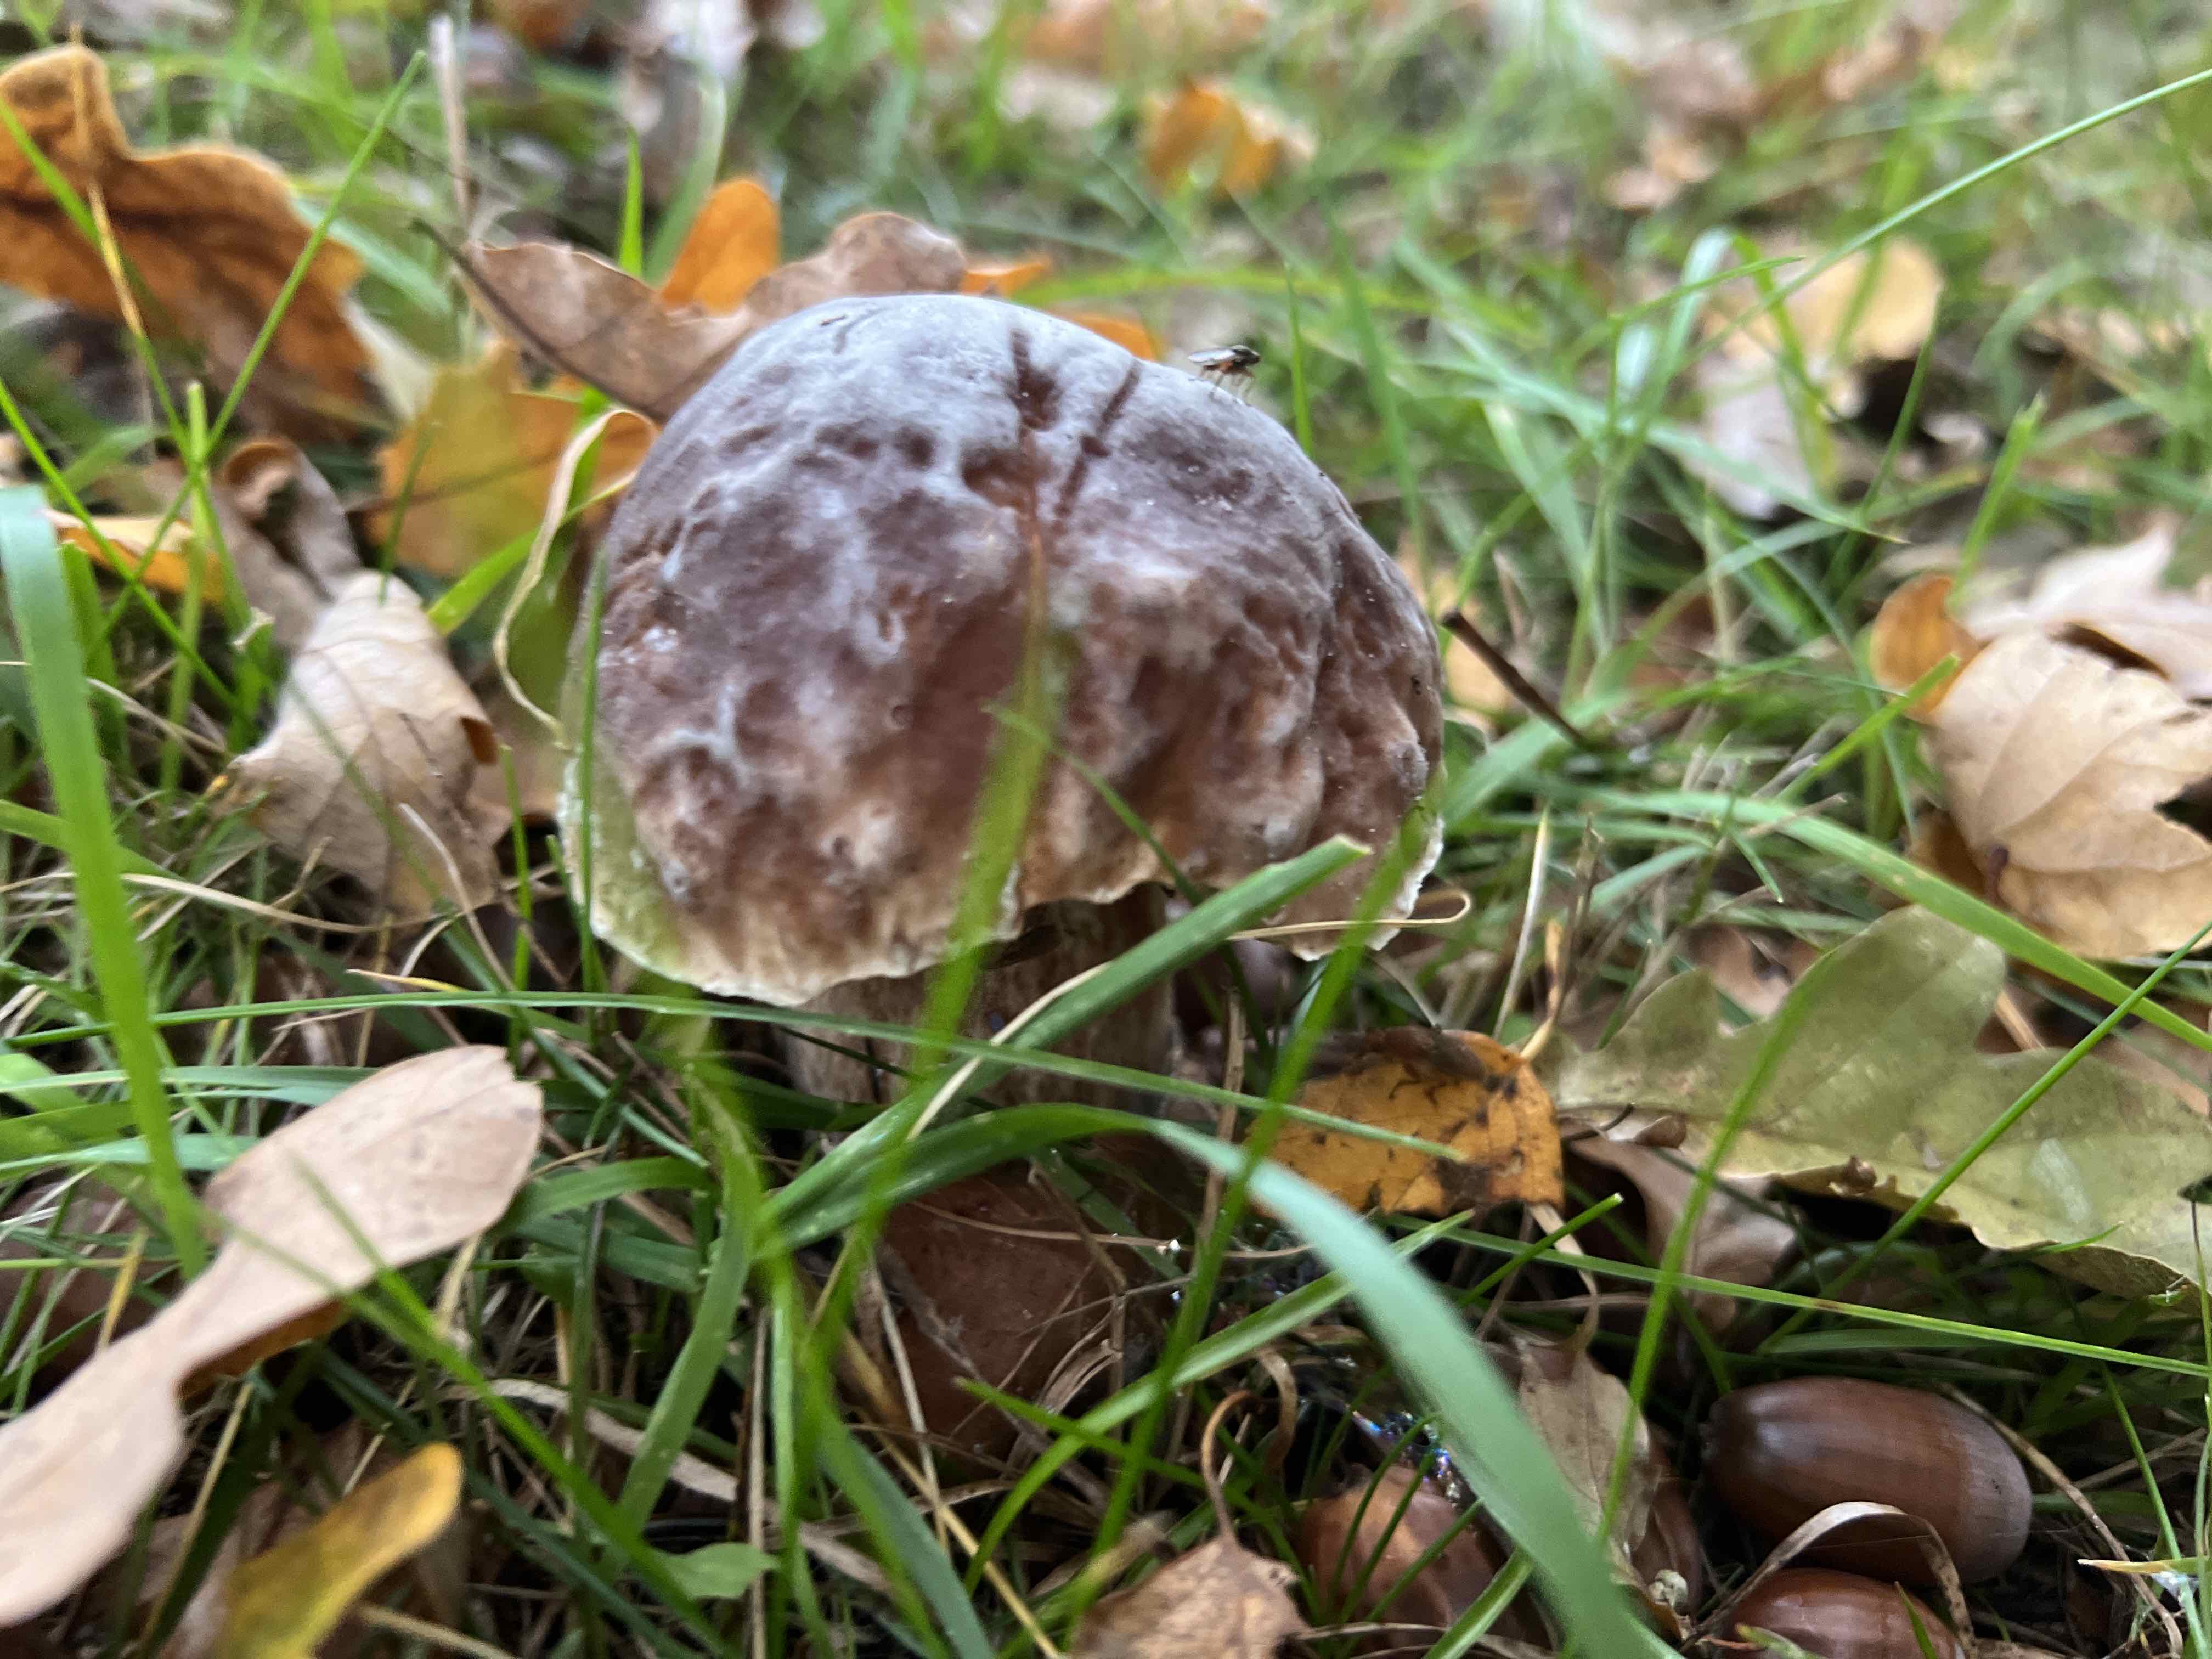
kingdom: Fungi
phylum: Basidiomycota
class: Agaricomycetes
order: Boletales
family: Boletaceae
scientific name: Boletaceae
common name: rørhatfamilien
